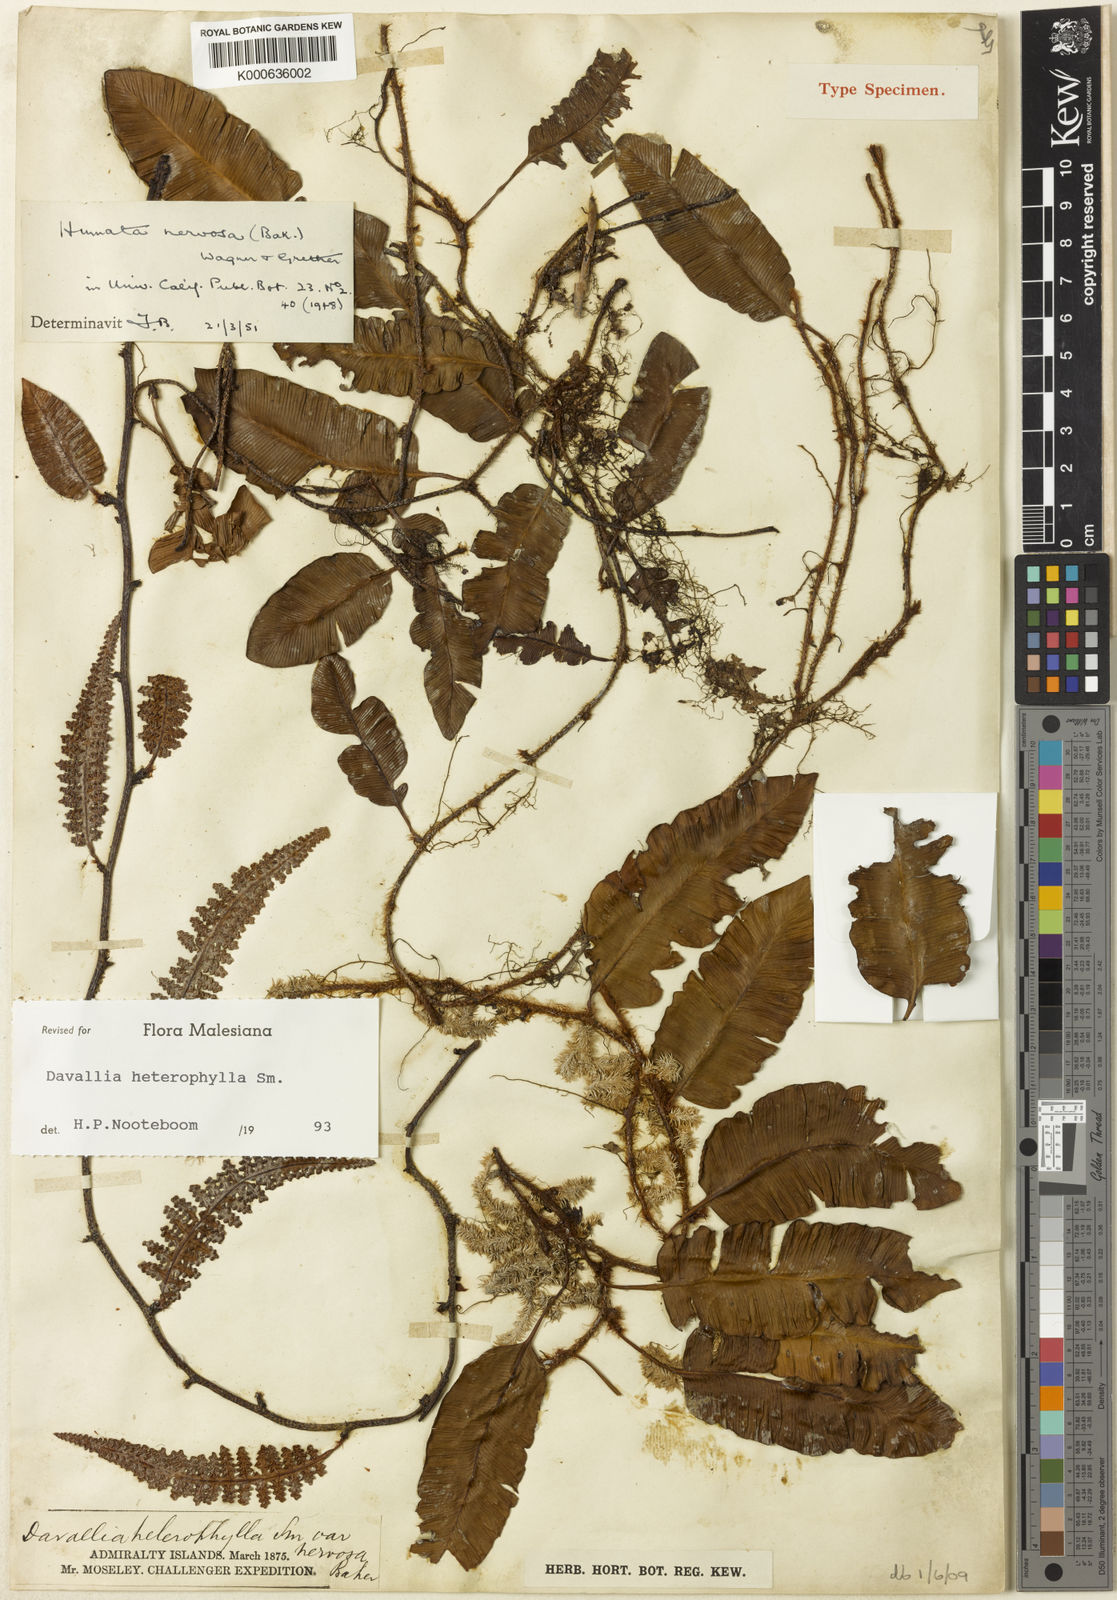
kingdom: Plantae
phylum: Tracheophyta
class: Polypodiopsida
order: Polypodiales
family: Davalliaceae
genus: Davallia
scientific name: Davallia heterophylla
